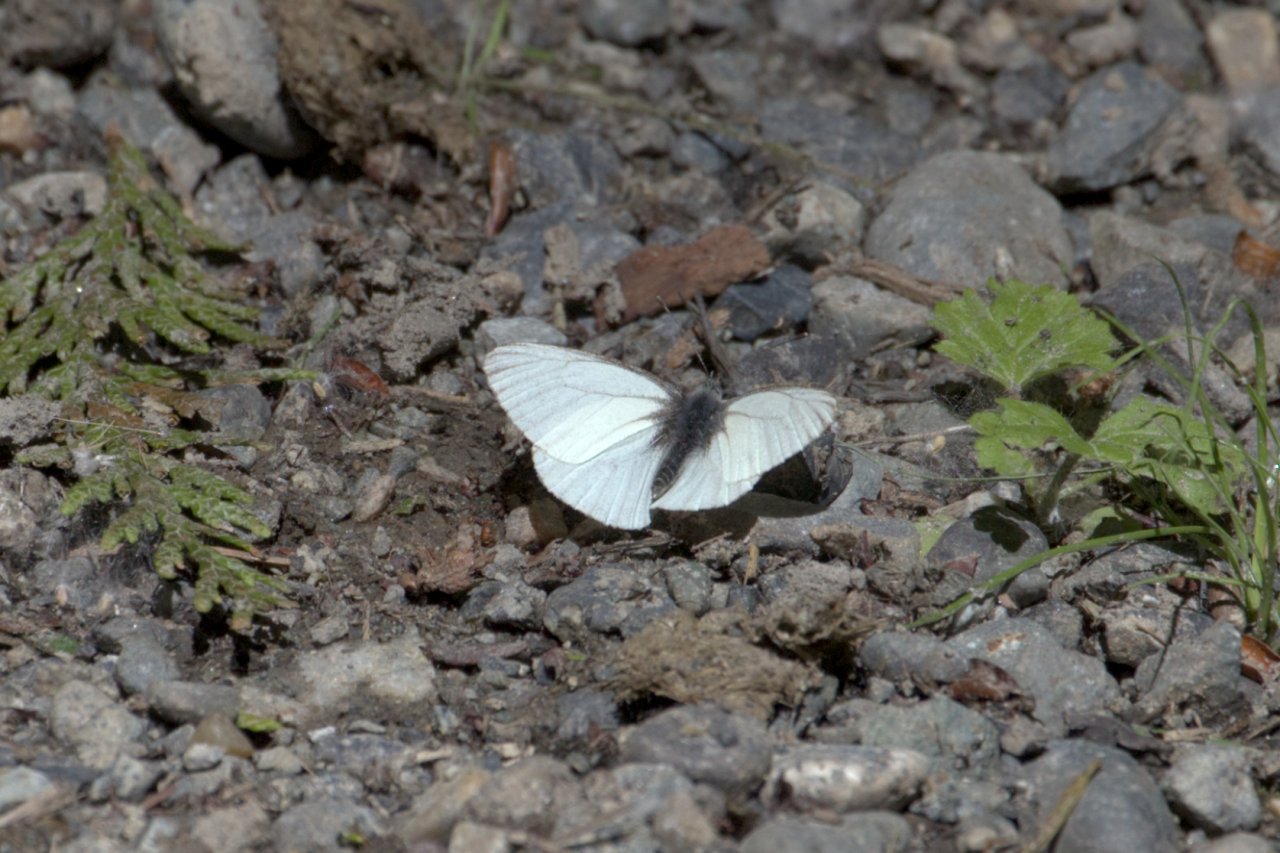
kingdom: Animalia
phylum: Arthropoda
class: Insecta
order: Lepidoptera
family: Pieridae
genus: Pieris
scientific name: Pieris marginalis
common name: Margined White
